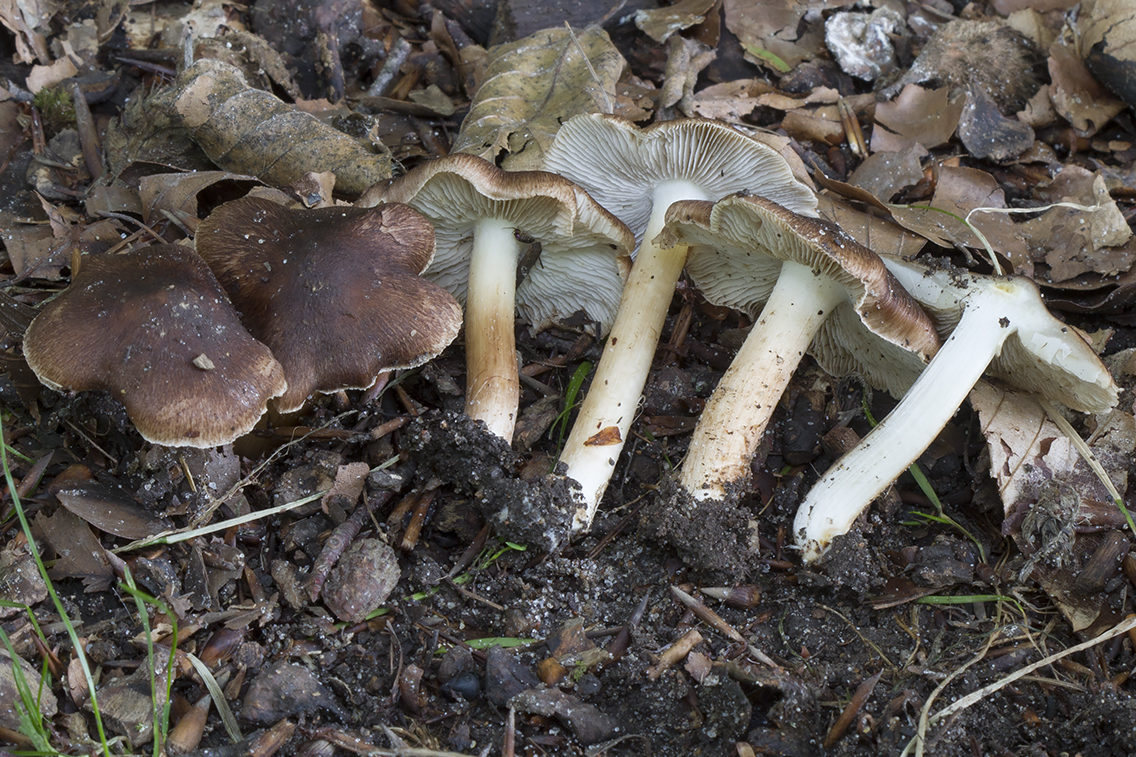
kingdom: Fungi
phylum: Basidiomycota
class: Agaricomycetes
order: Agaricales
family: Inocybaceae
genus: Inosperma
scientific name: Inosperma
